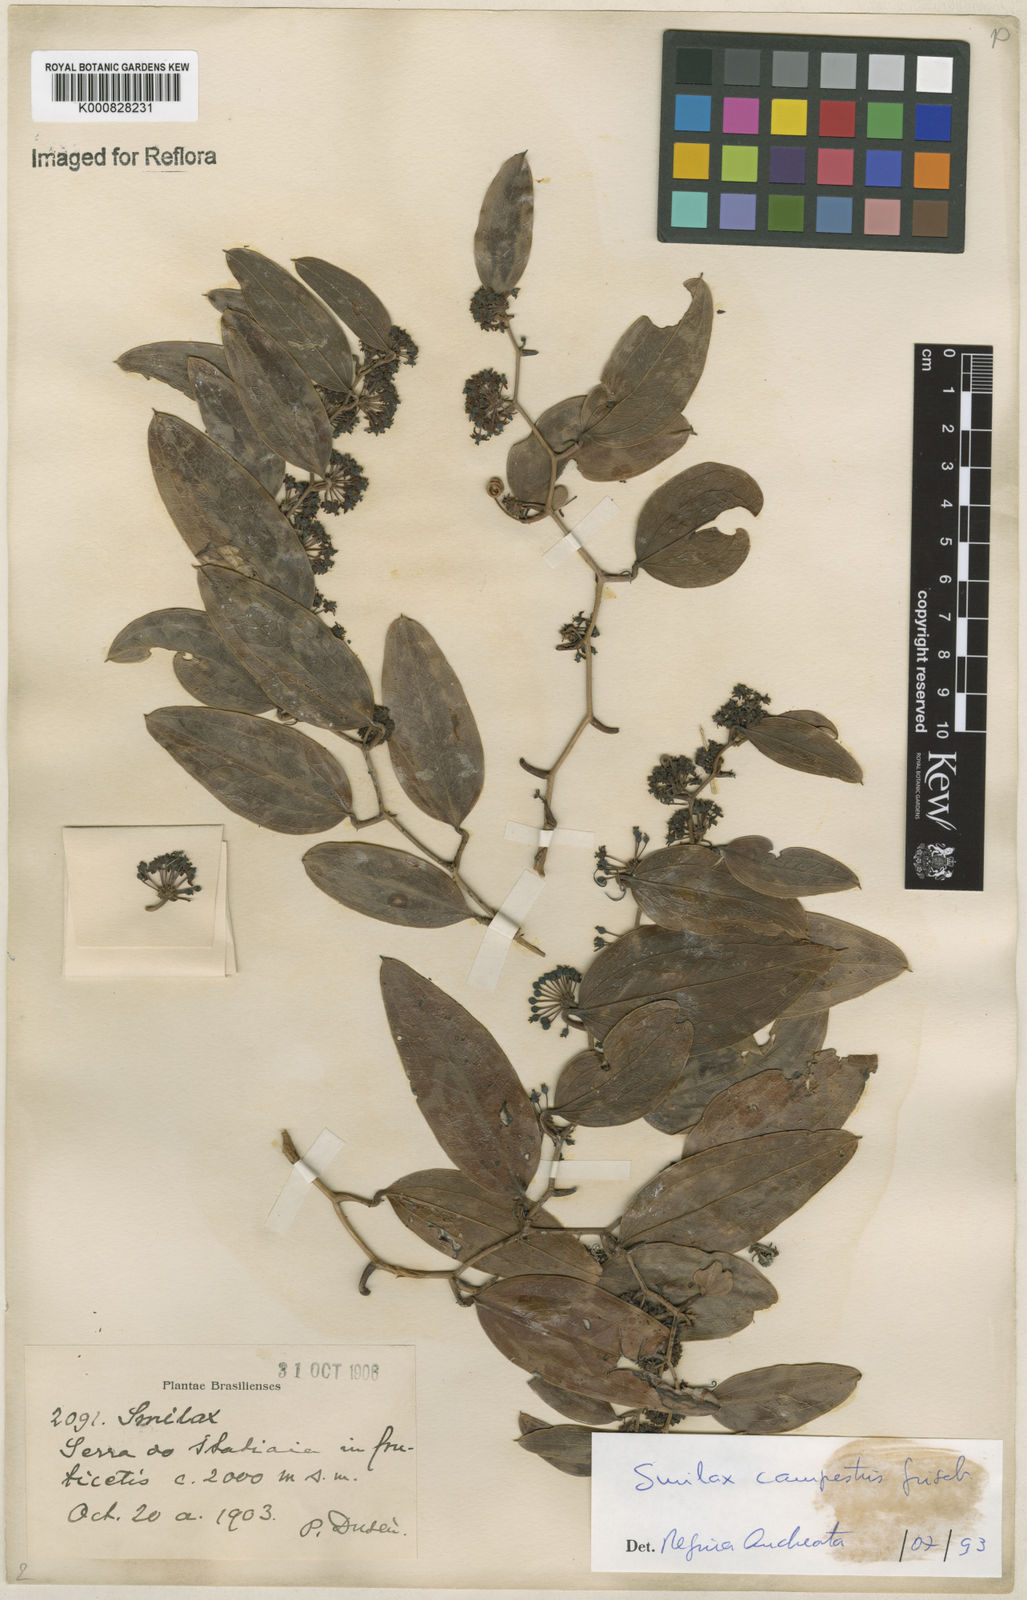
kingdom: Plantae
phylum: Tracheophyta
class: Liliopsida
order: Liliales
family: Smilacaceae
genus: Smilax
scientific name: Smilax campestris
